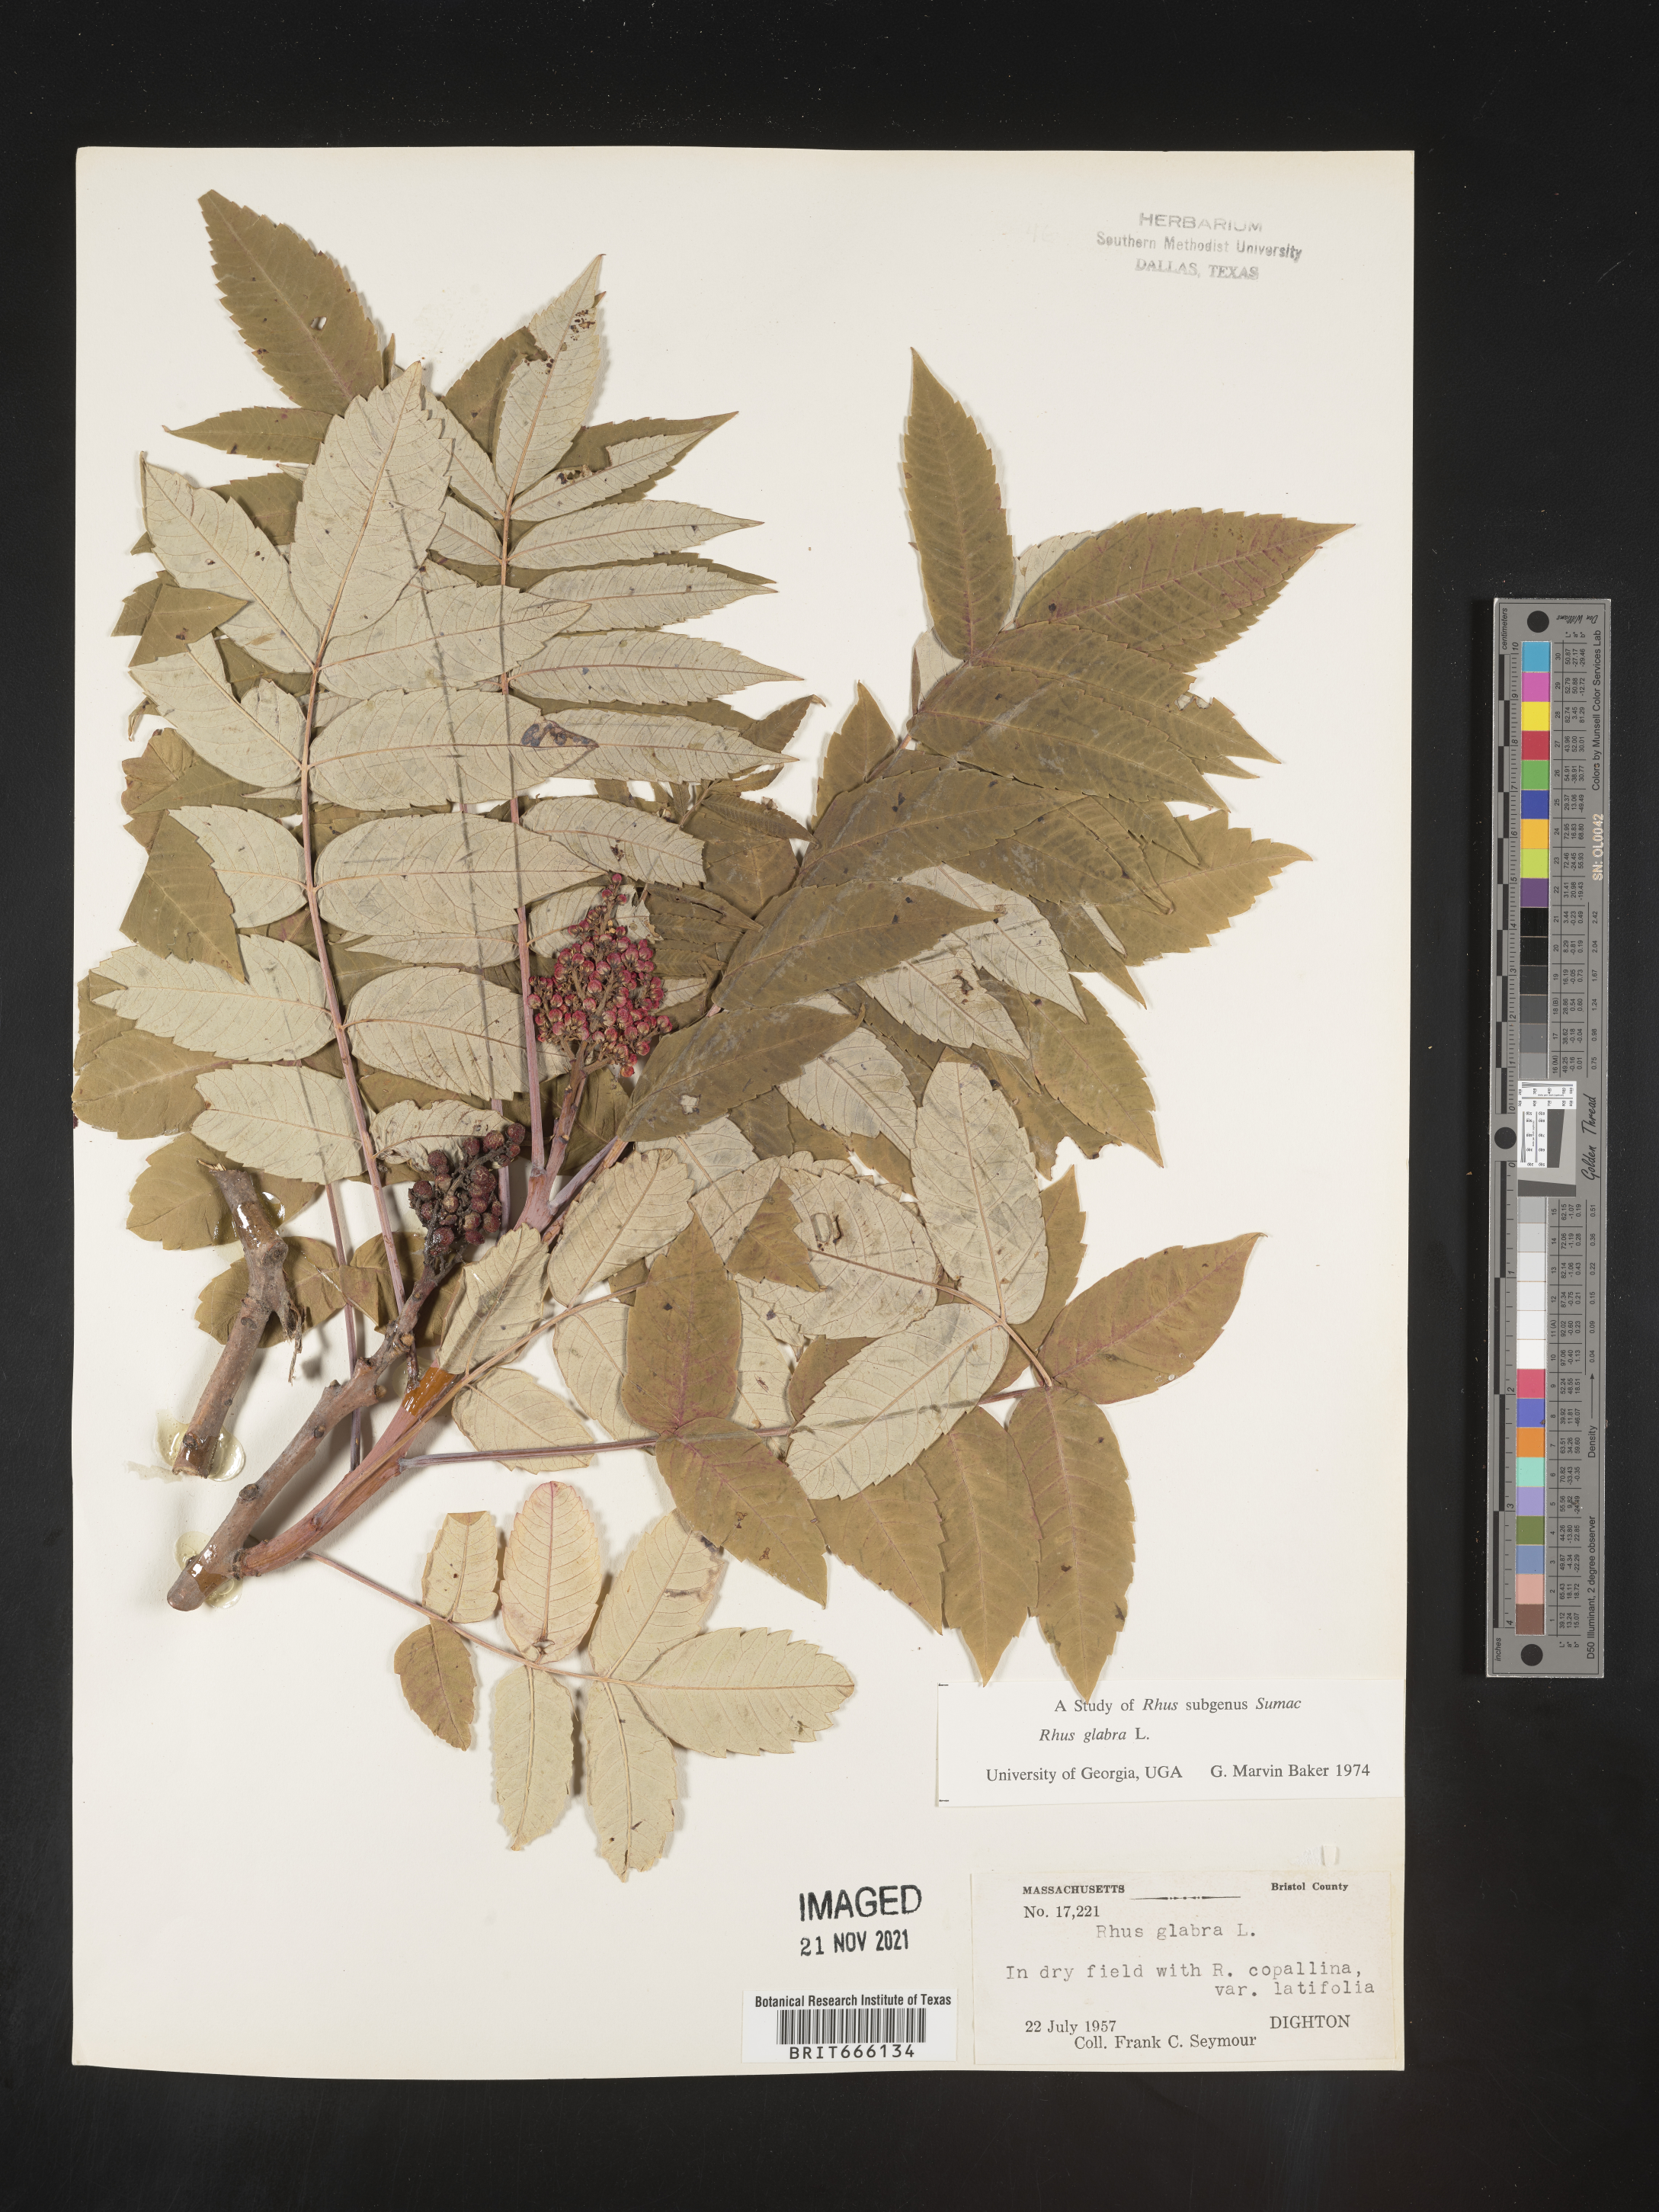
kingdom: Plantae
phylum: Tracheophyta
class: Magnoliopsida
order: Sapindales
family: Anacardiaceae
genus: Rhus
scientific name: Rhus glabra
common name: Scarlet sumac
